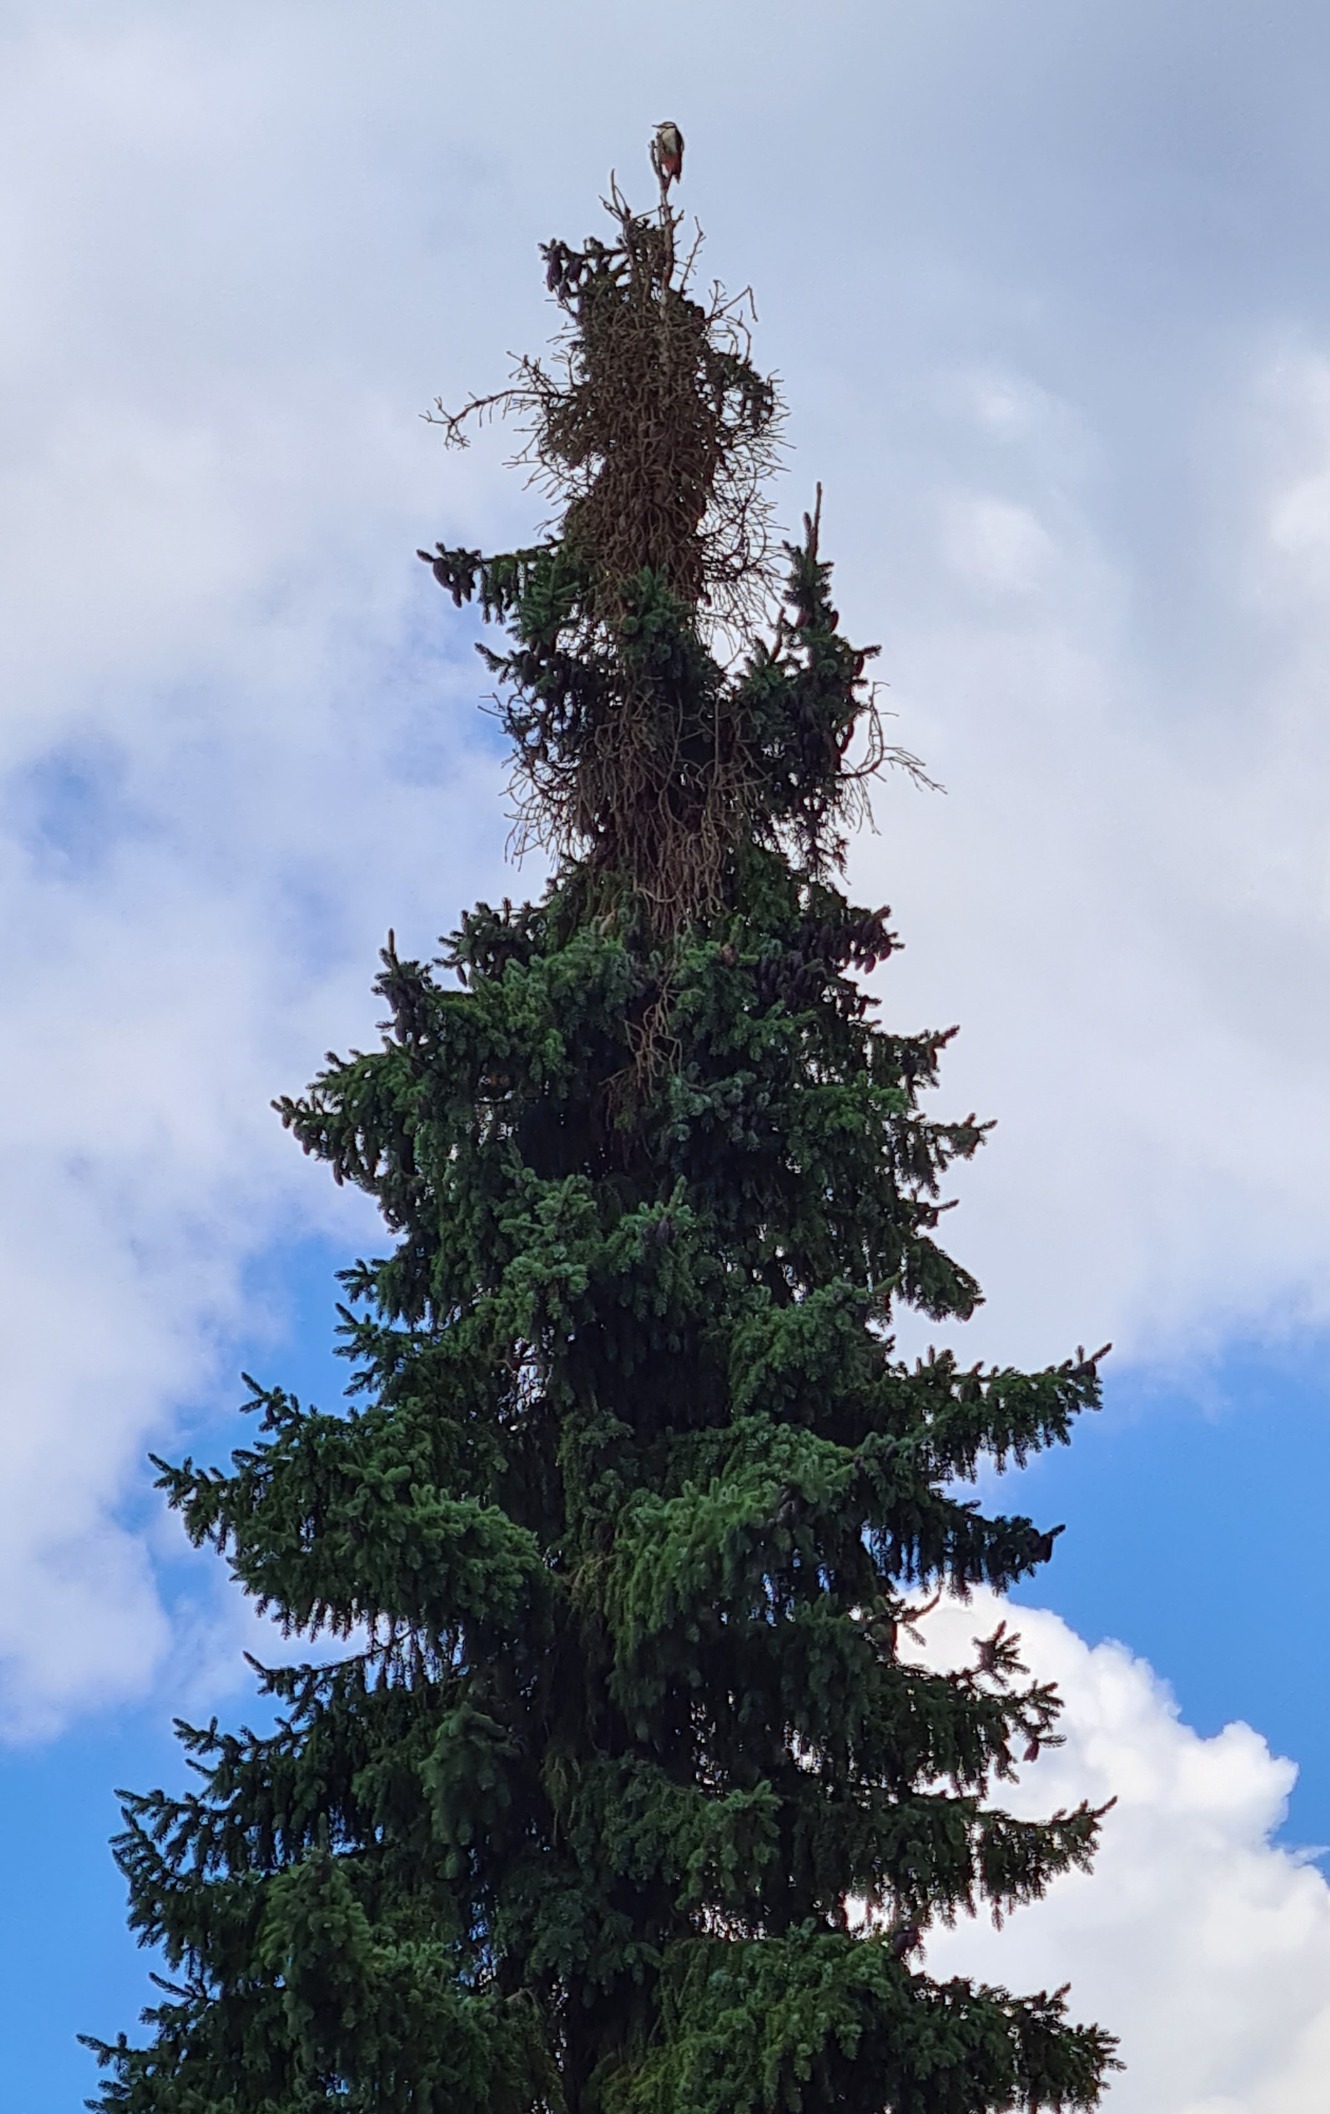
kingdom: Animalia
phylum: Chordata
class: Aves
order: Piciformes
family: Picidae
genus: Dendrocopos
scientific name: Dendrocopos major
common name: Stor flagspætte
